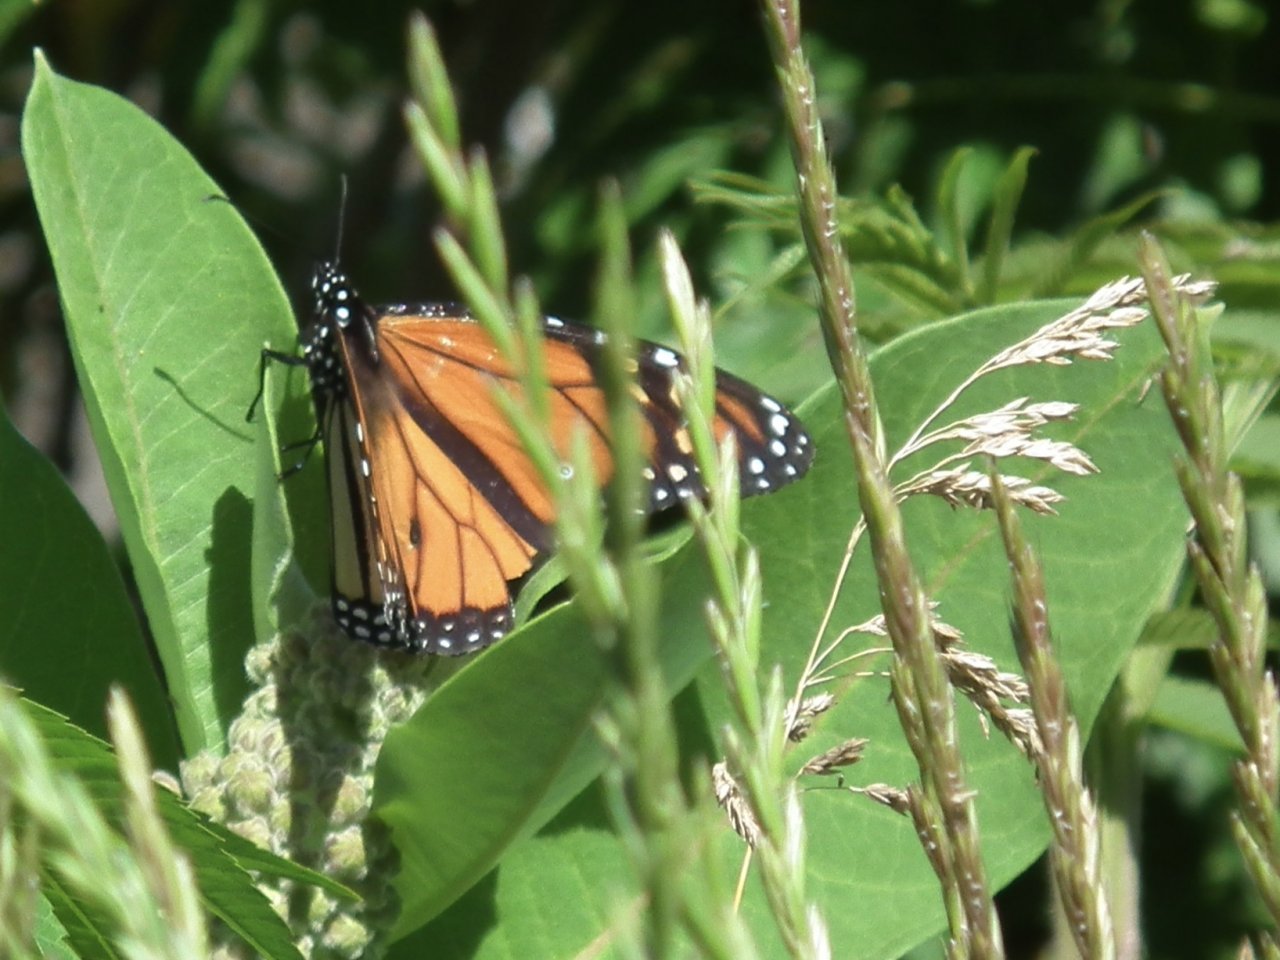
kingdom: Animalia
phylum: Arthropoda
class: Insecta
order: Lepidoptera
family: Nymphalidae
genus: Danaus
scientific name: Danaus plexippus
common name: Monarch
